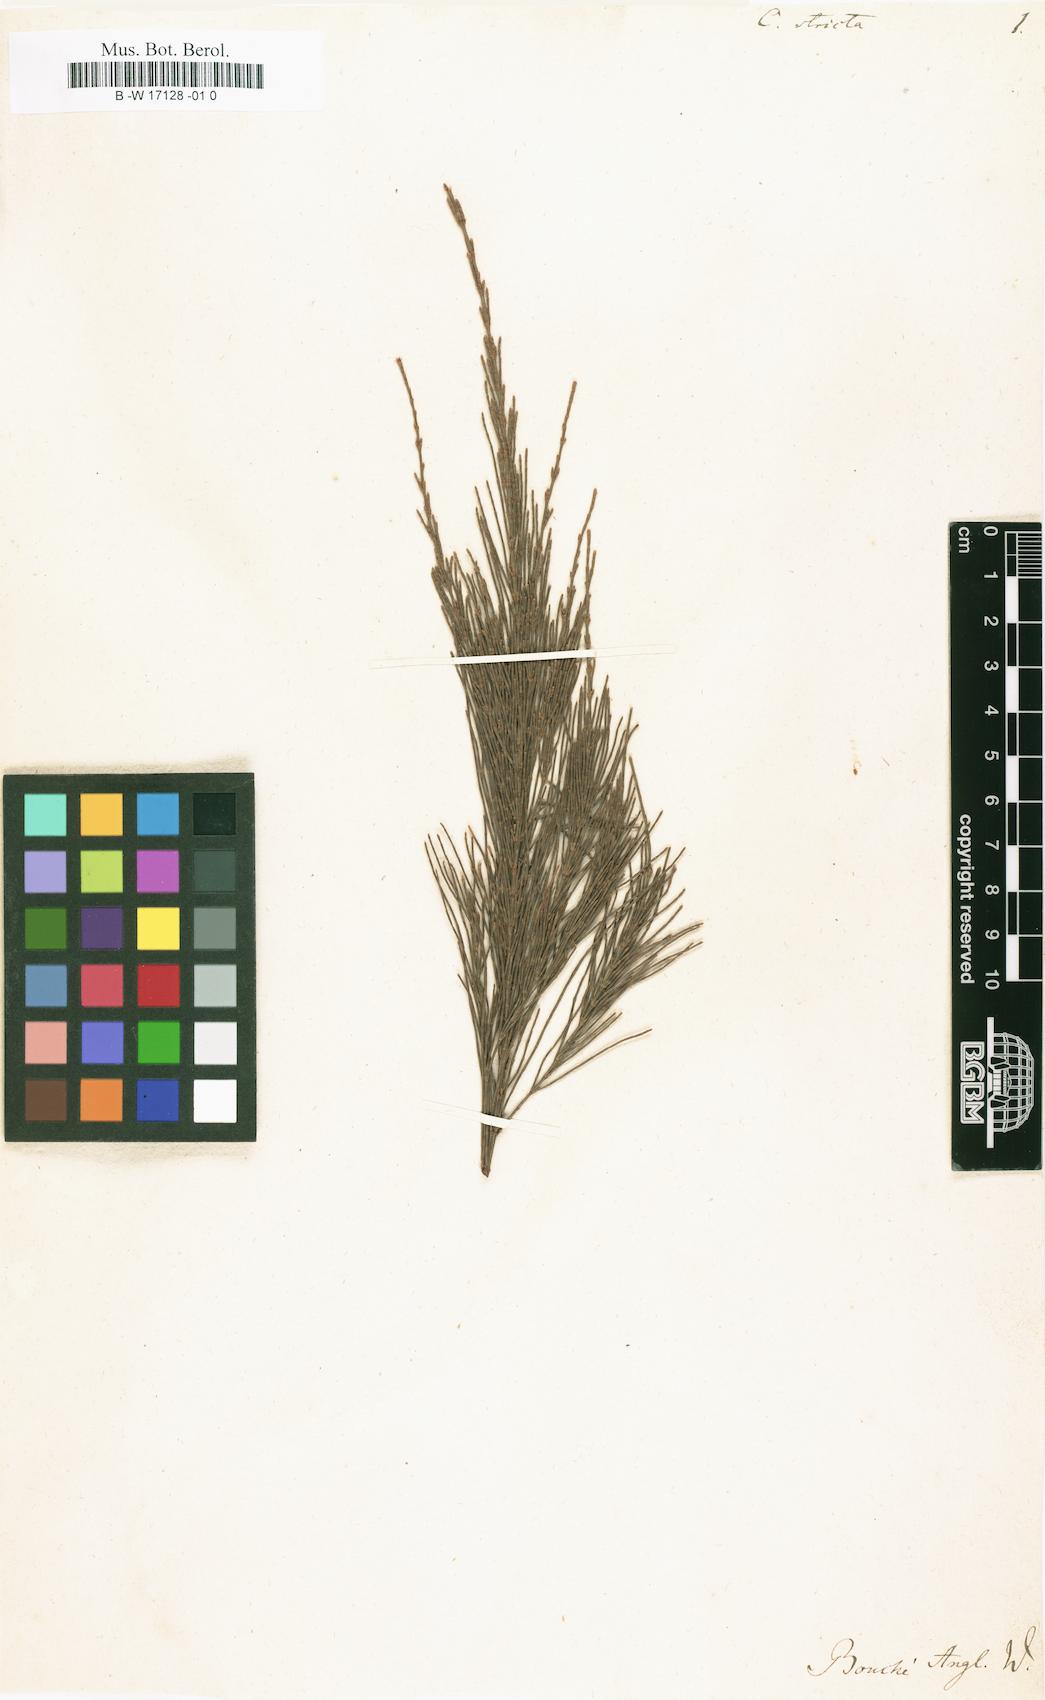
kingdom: Plantae
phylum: Tracheophyta
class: Magnoliopsida
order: Fagales
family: Casuarinaceae
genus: Allocasuarina
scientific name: Allocasuarina verticillata
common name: Drooping she-oak
